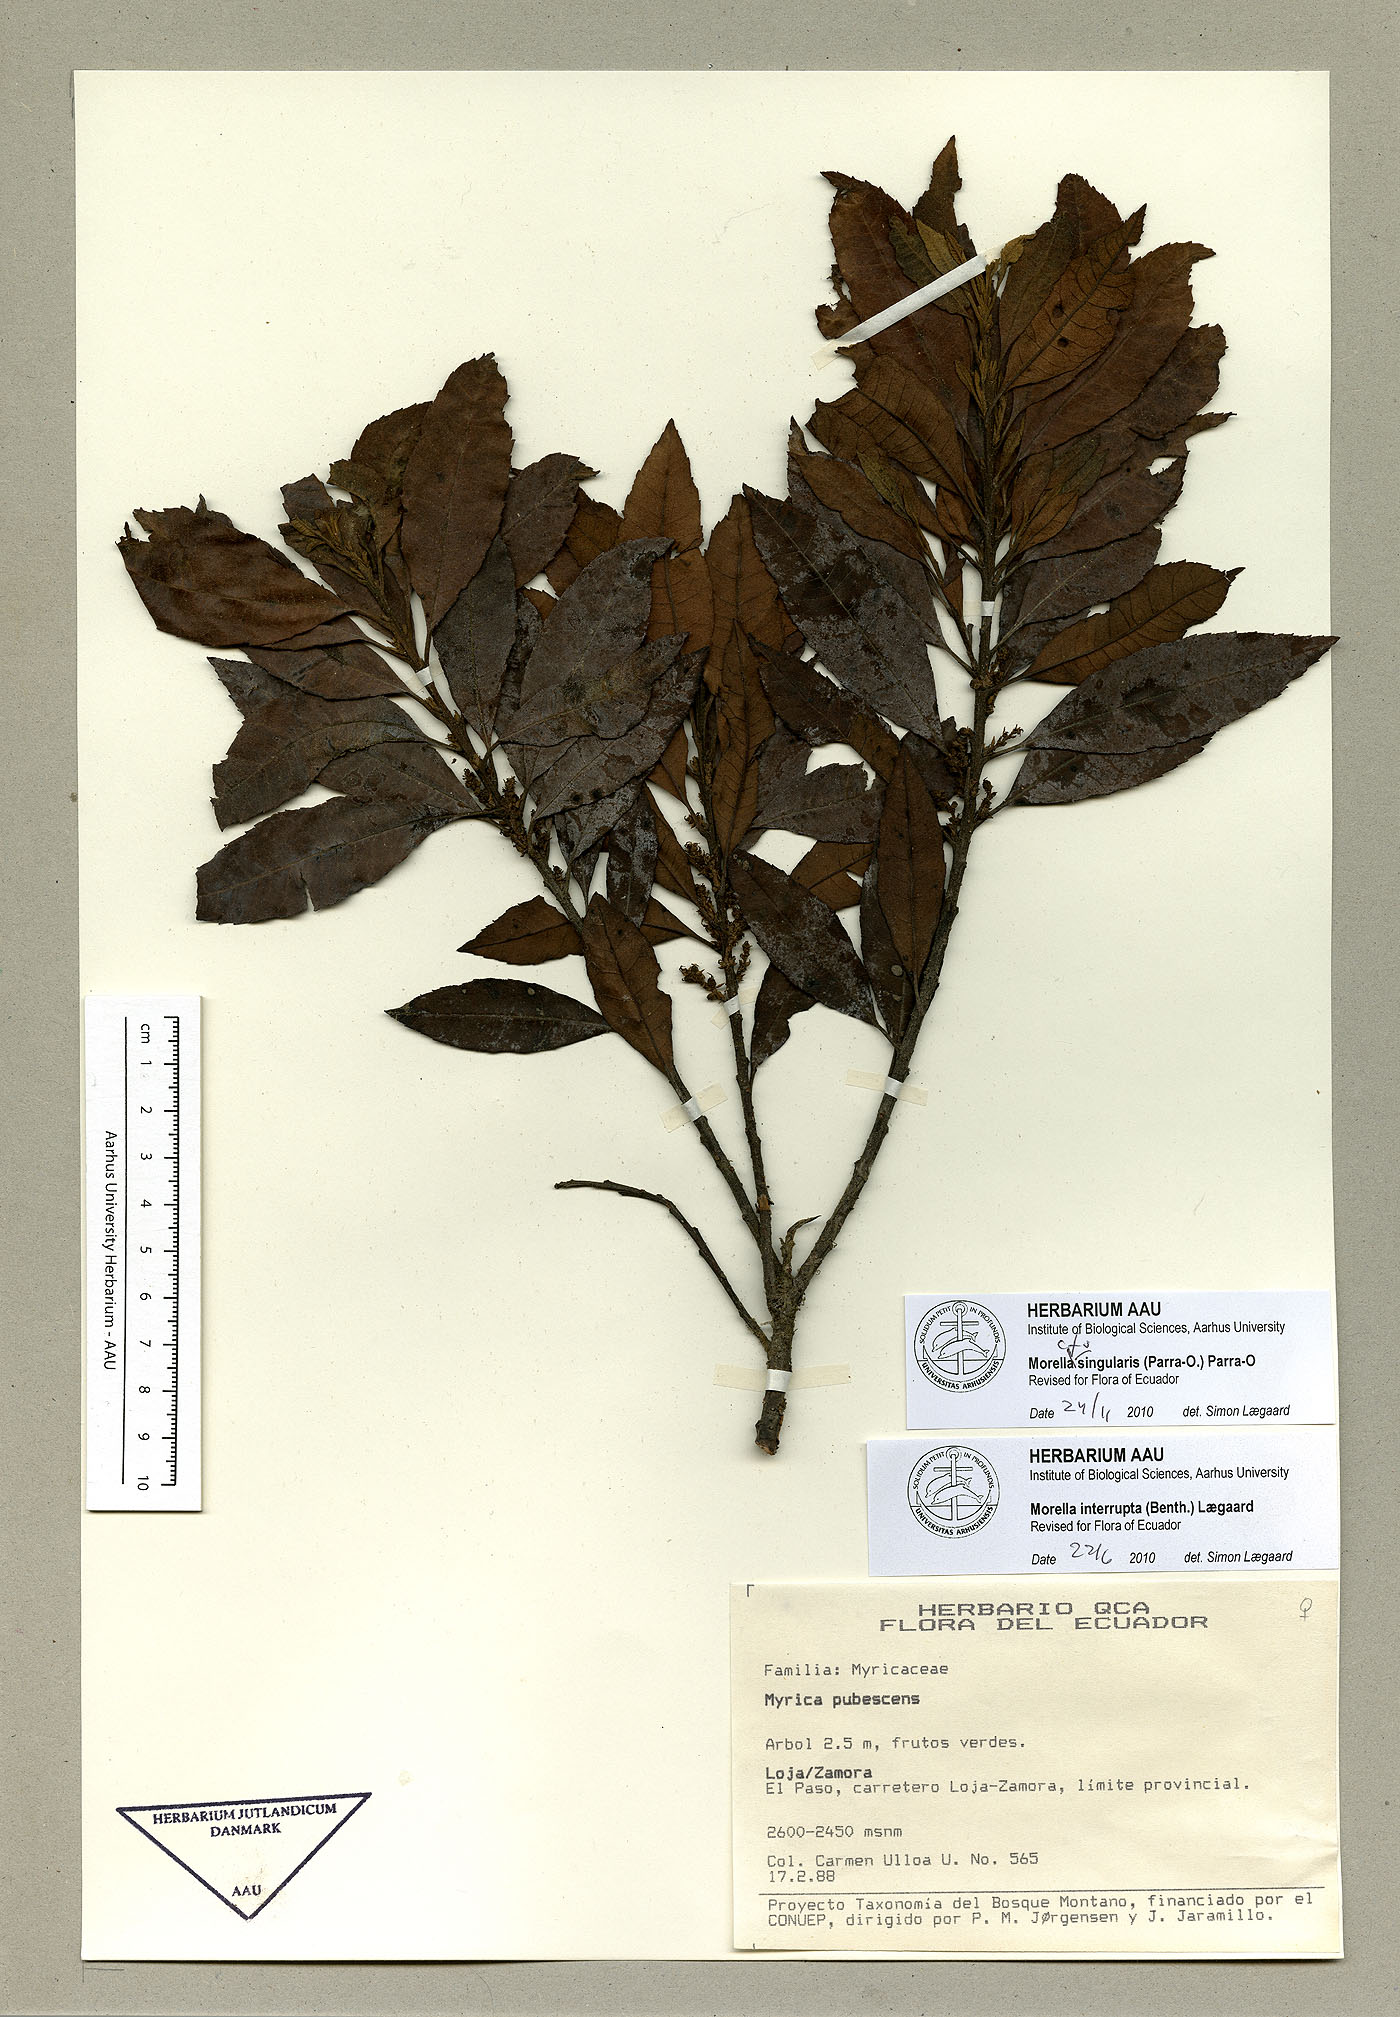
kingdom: Plantae
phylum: Tracheophyta
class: Magnoliopsida
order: Fagales
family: Myricaceae
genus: Morella
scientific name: Morella singularis
